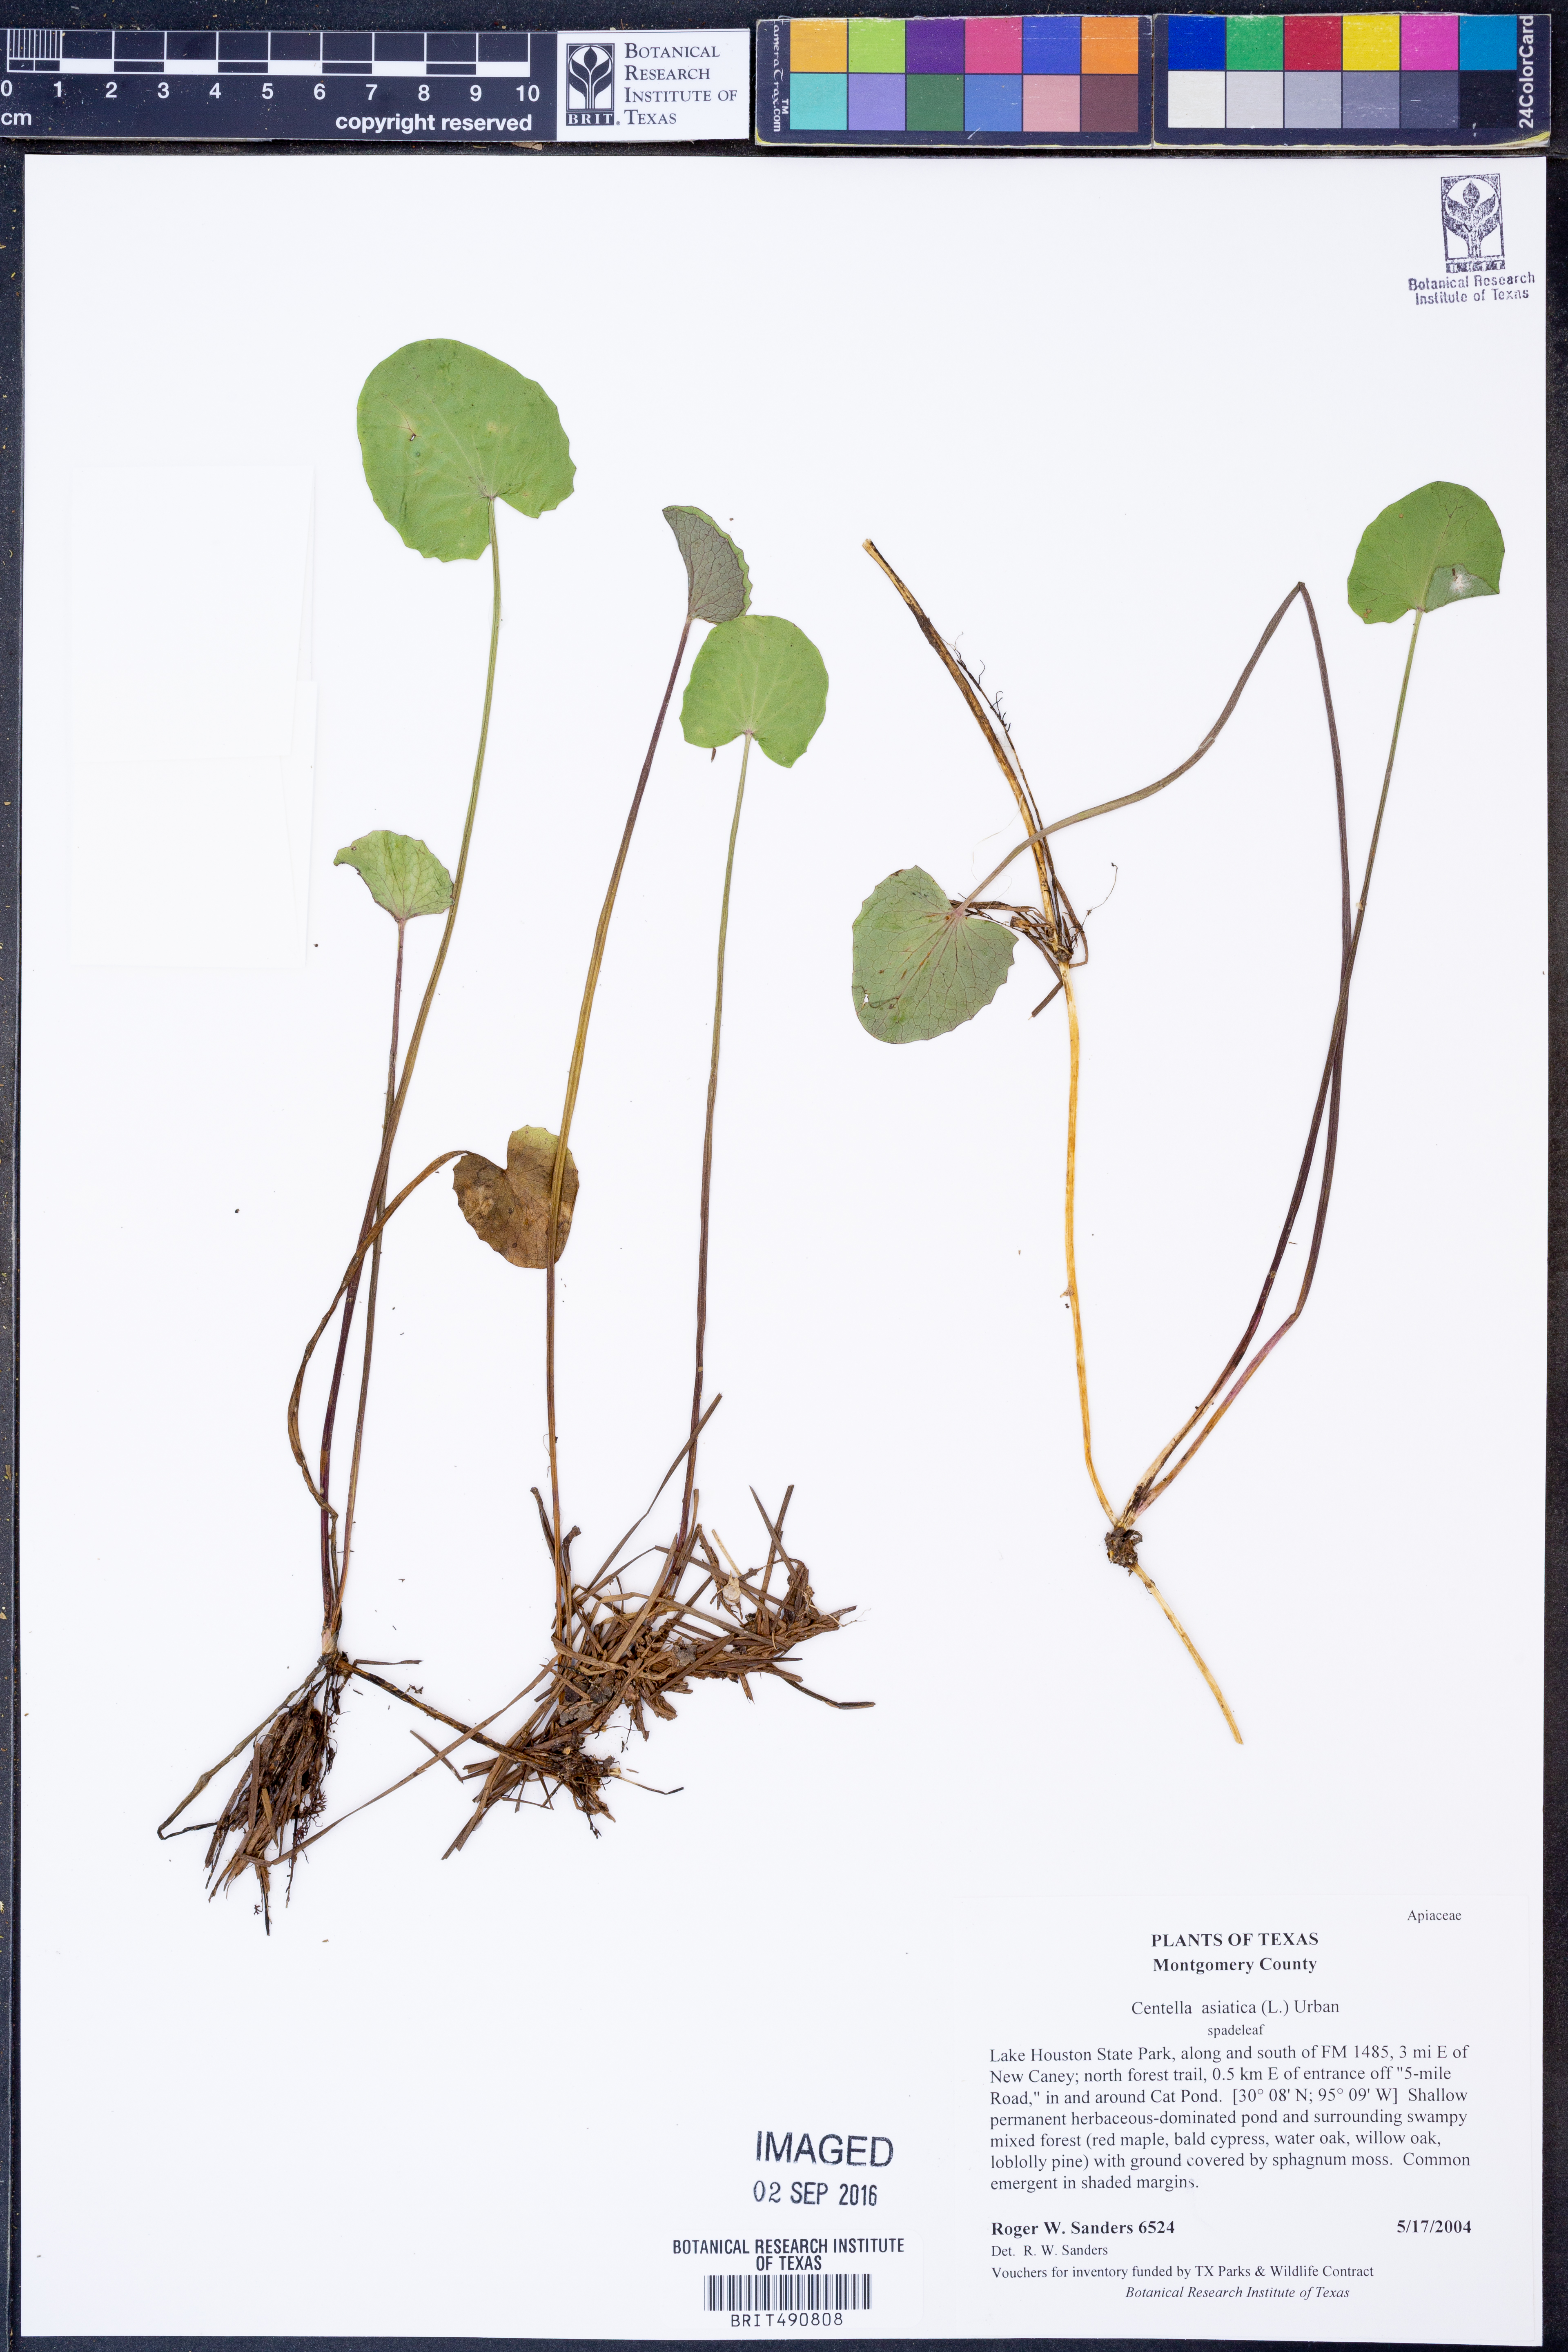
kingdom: Plantae
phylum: Tracheophyta
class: Magnoliopsida
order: Apiales
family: Apiaceae
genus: Centella
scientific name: Centella asiatica
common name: Spadeleaf
